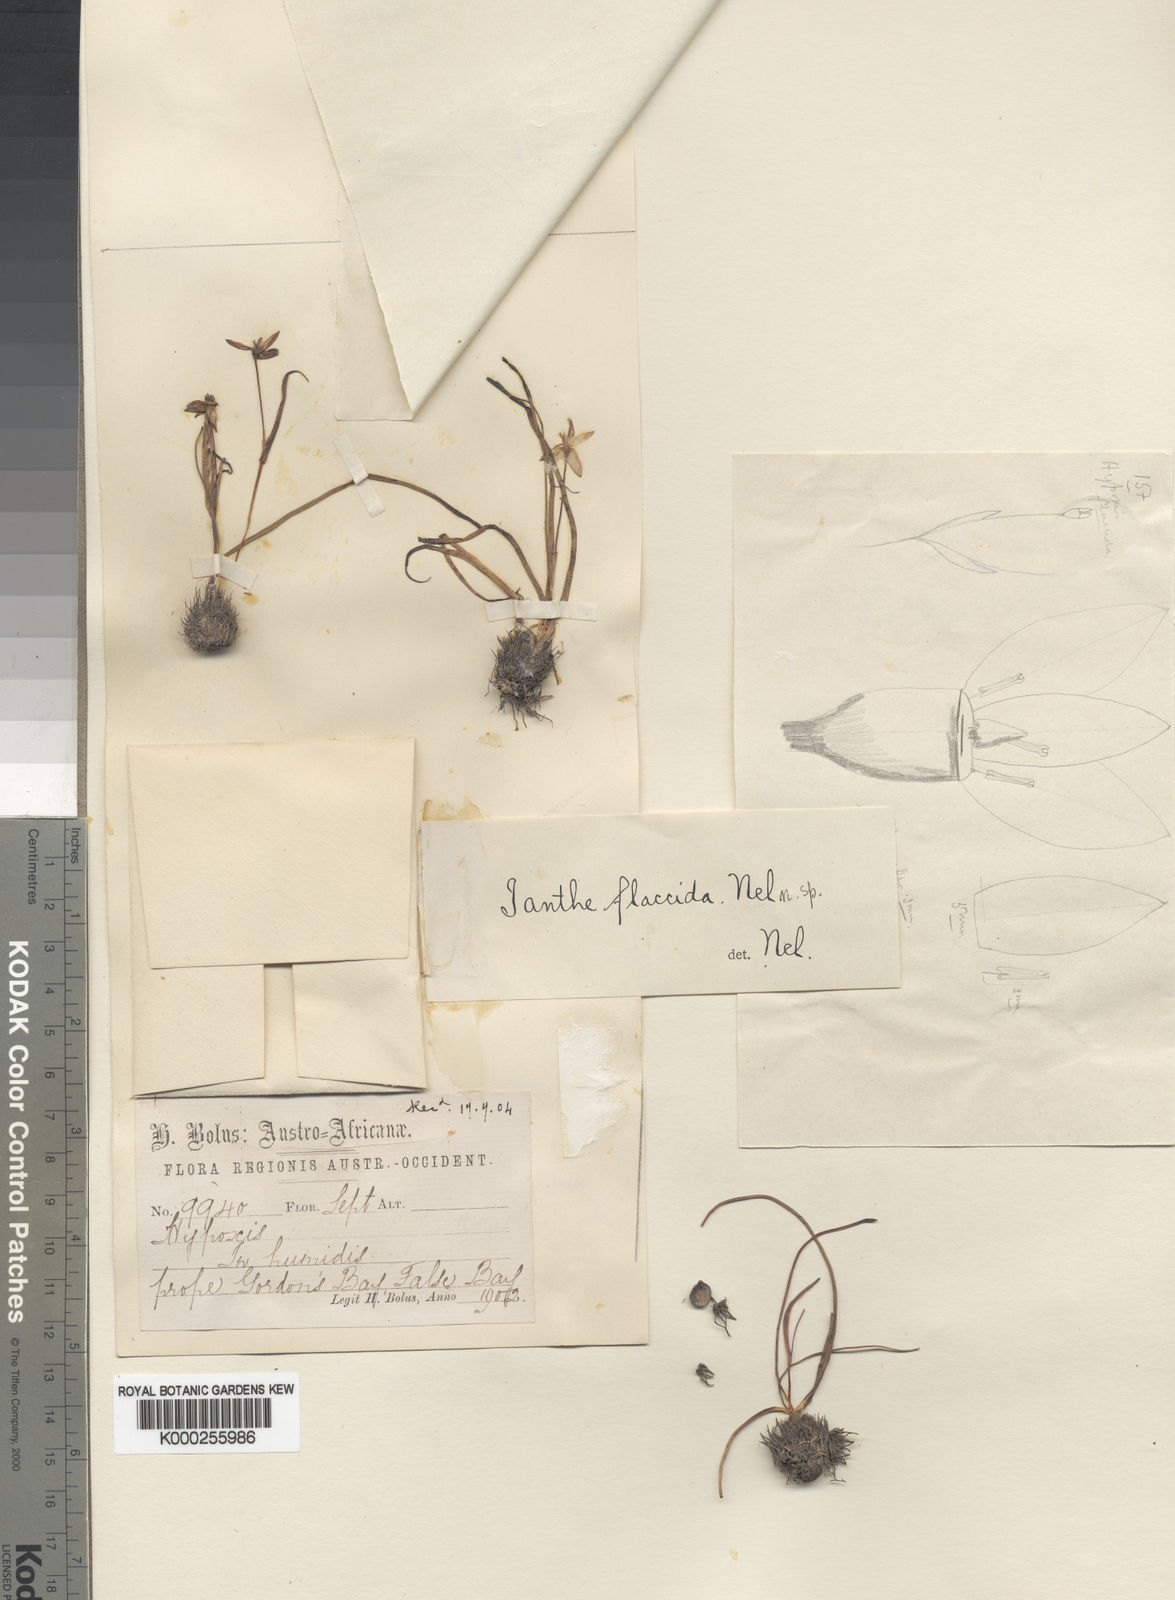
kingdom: Plantae
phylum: Tracheophyta
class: Liliopsida
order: Asparagales
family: Hypoxidaceae
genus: Pauridia
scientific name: Pauridia flaccida
